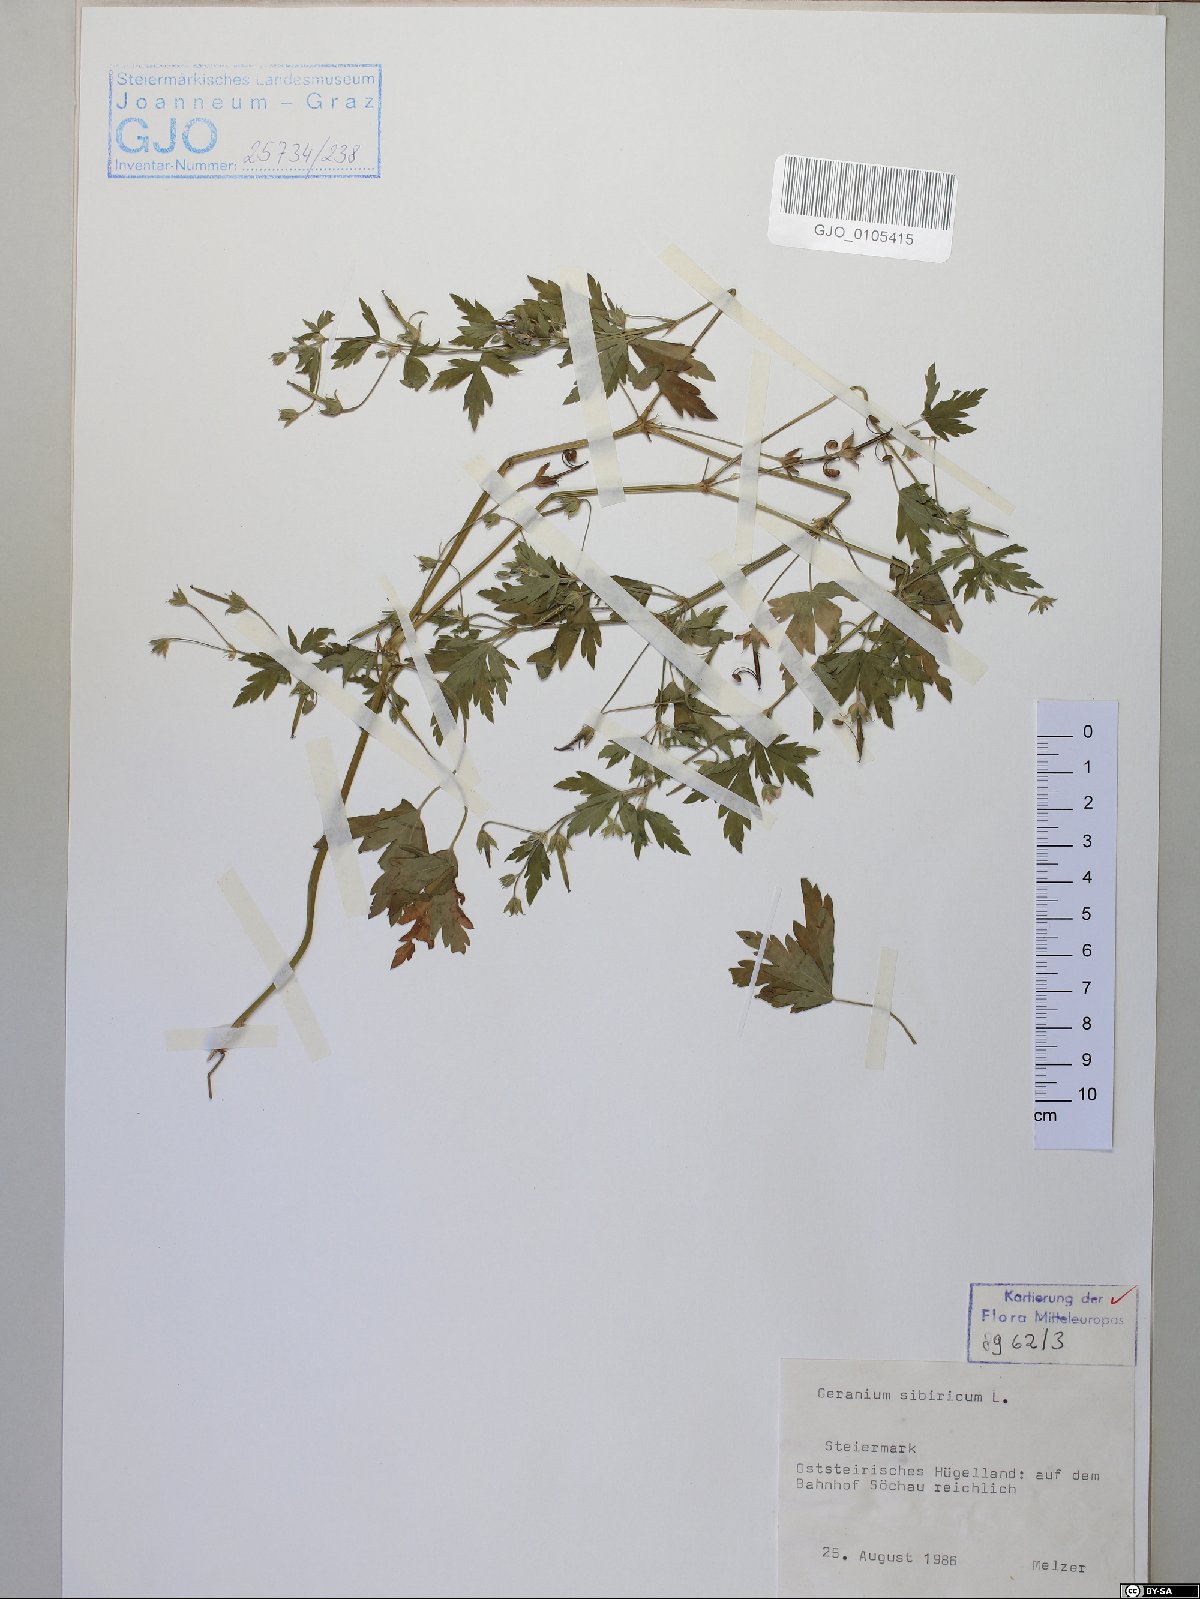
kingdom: Plantae
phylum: Tracheophyta
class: Magnoliopsida
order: Geraniales
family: Geraniaceae
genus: Geranium
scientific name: Geranium sibiricum
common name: Siberian crane's-bill
